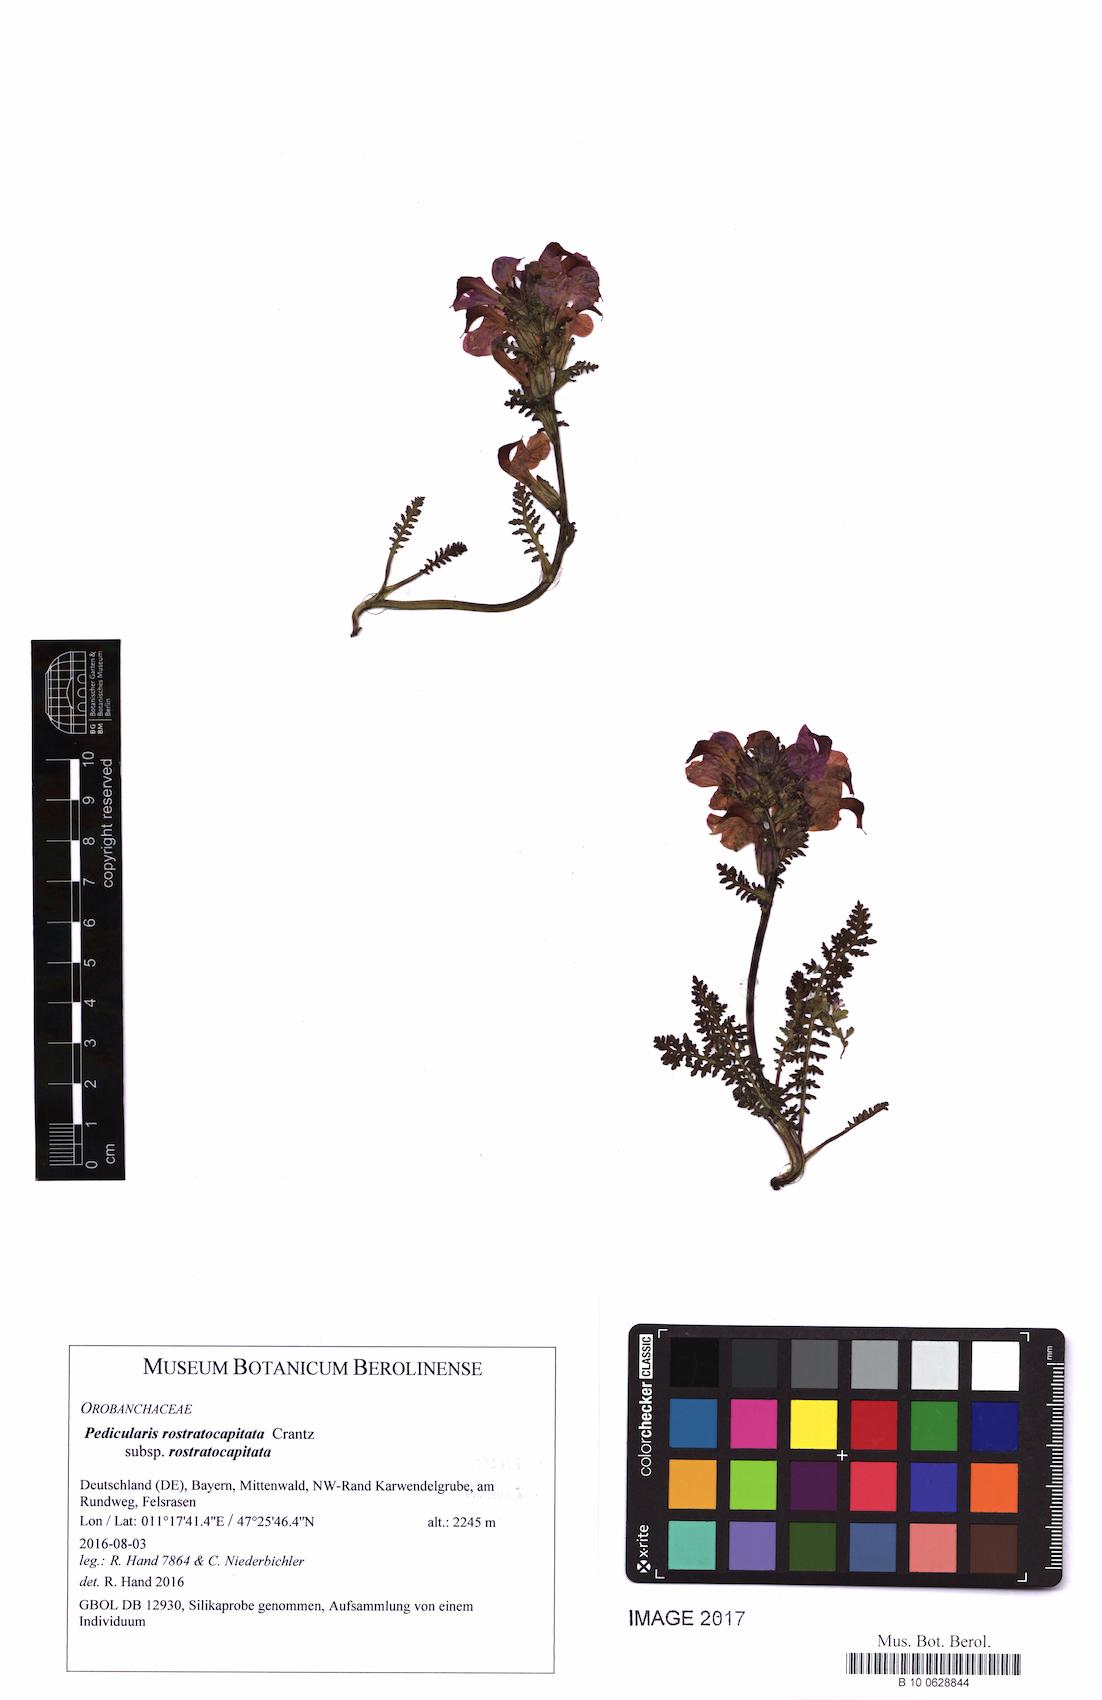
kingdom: Plantae
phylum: Tracheophyta
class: Magnoliopsida
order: Lamiales
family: Orobanchaceae
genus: Pedicularis
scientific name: Pedicularis rostratocapitata
